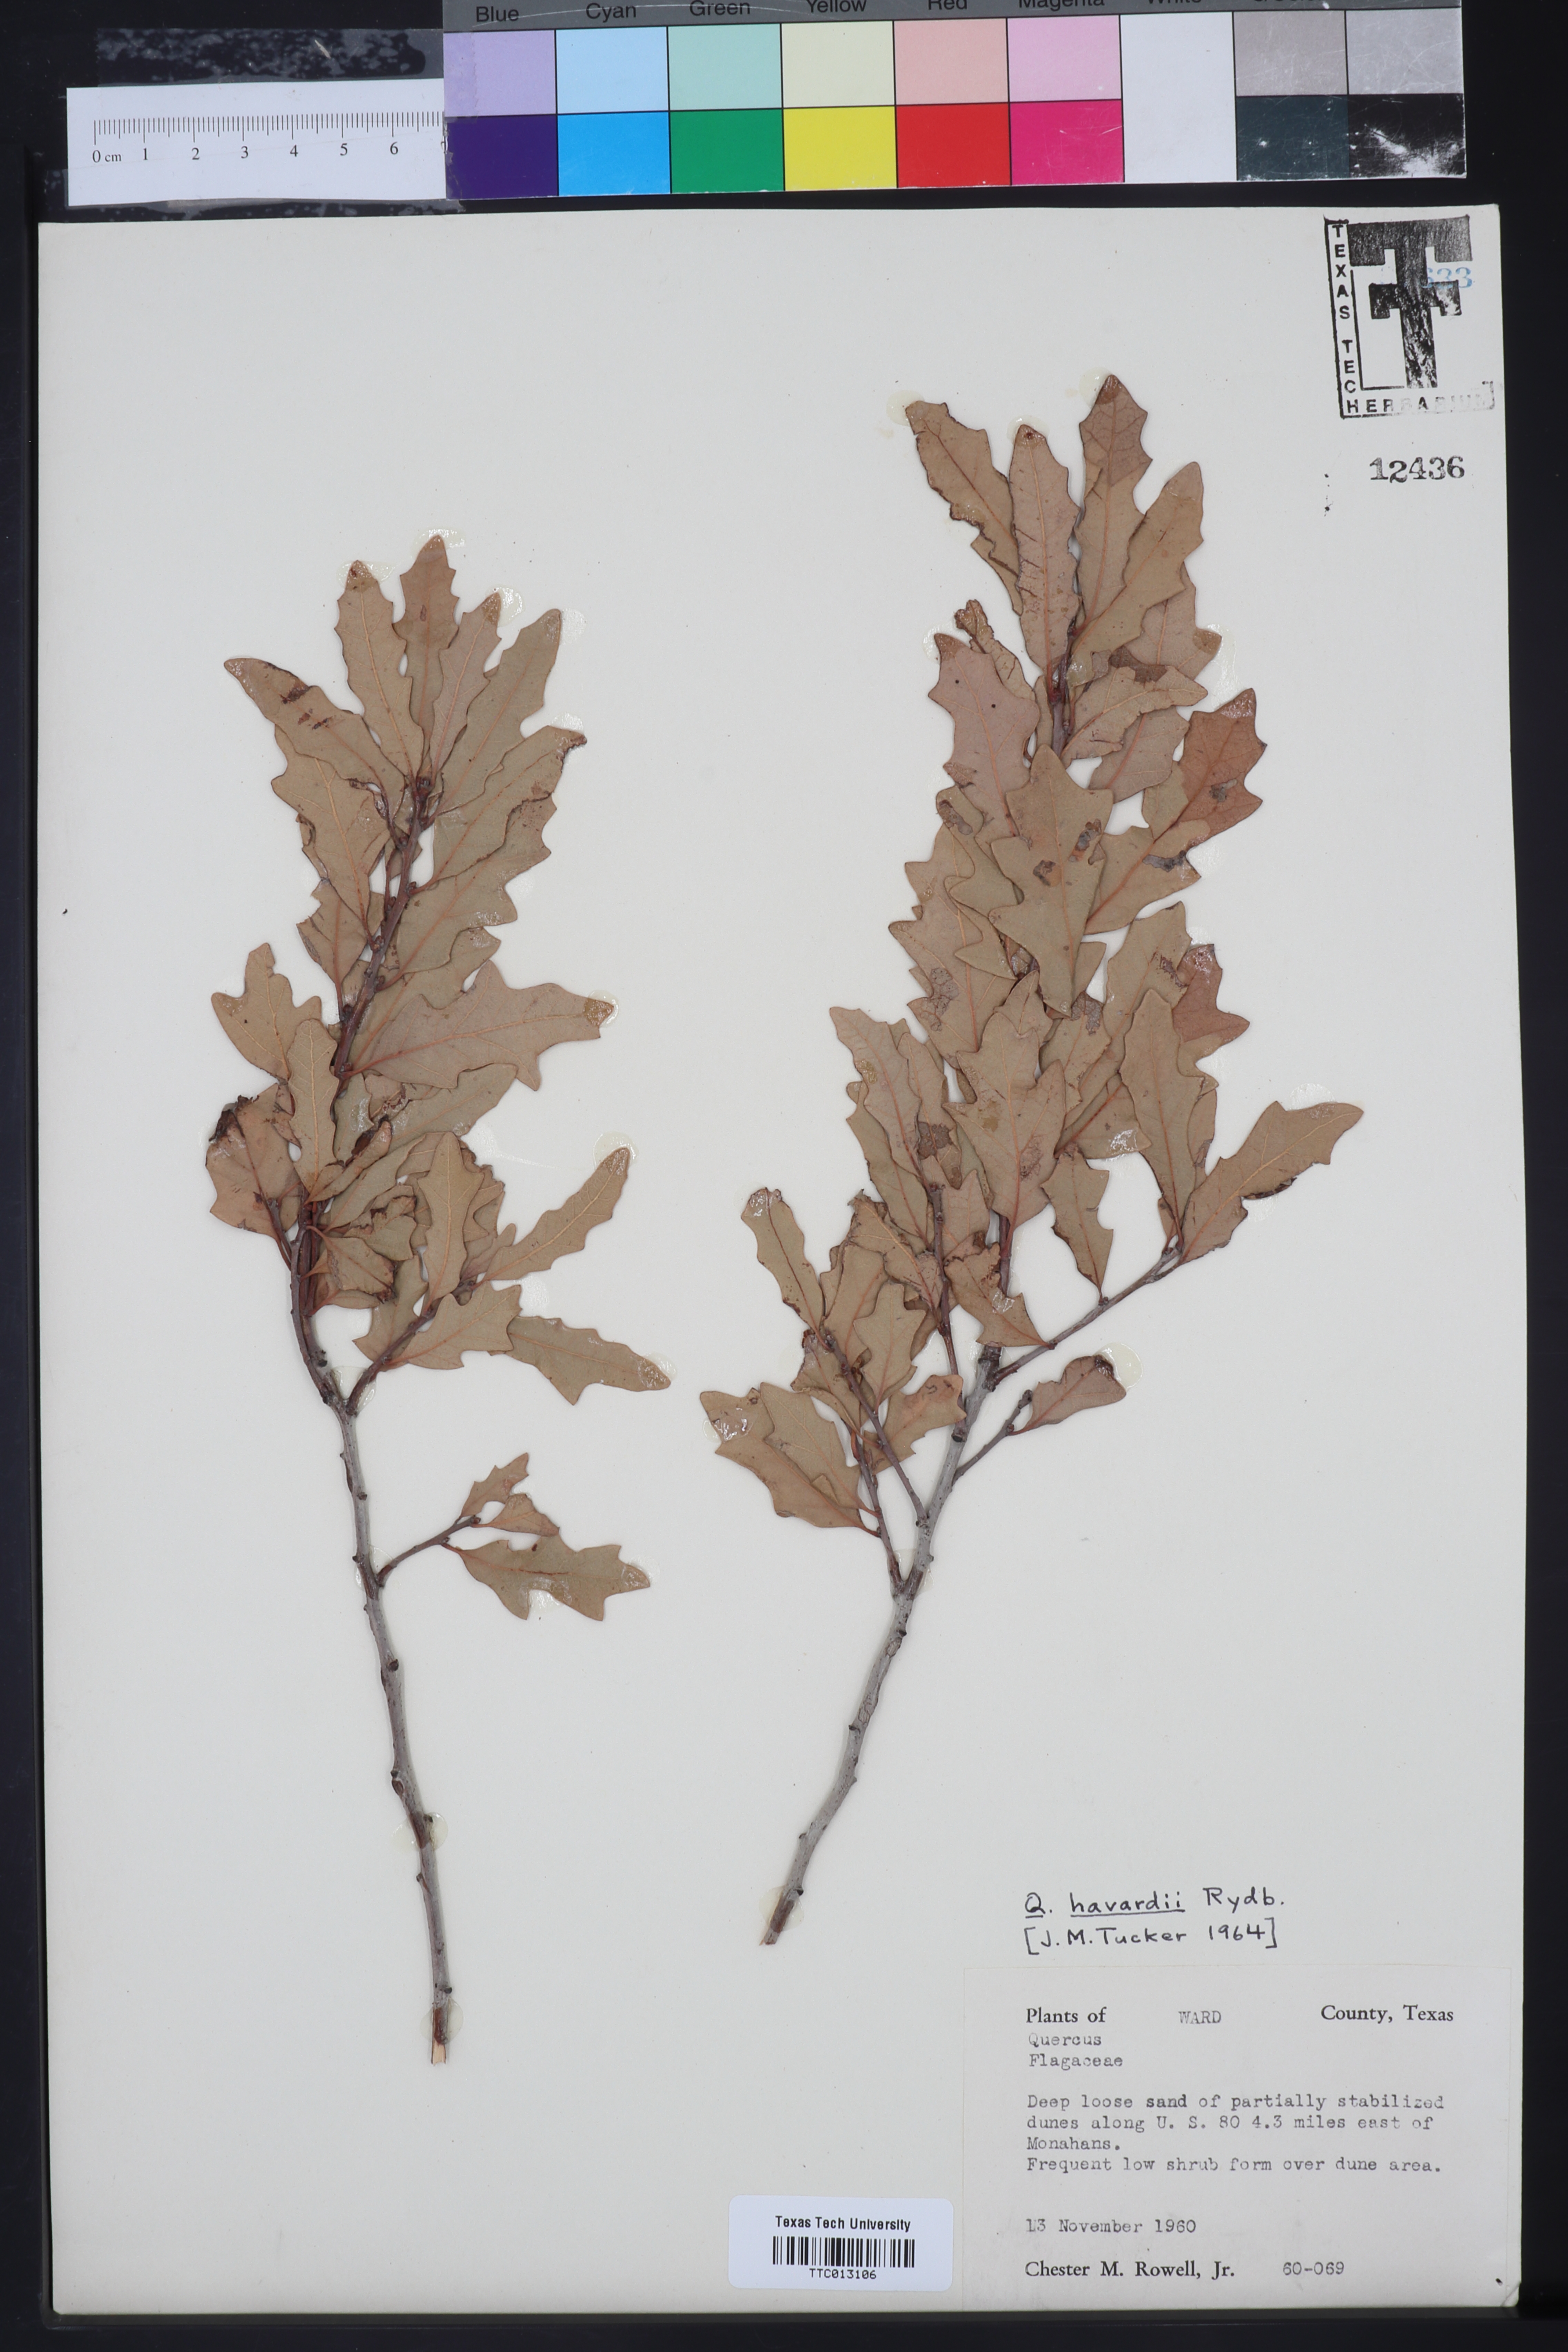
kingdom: Plantae
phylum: Tracheophyta
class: Magnoliopsida
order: Fagales
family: Fagaceae
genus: Quercus
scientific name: Quercus havardii
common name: Shinnery oak
